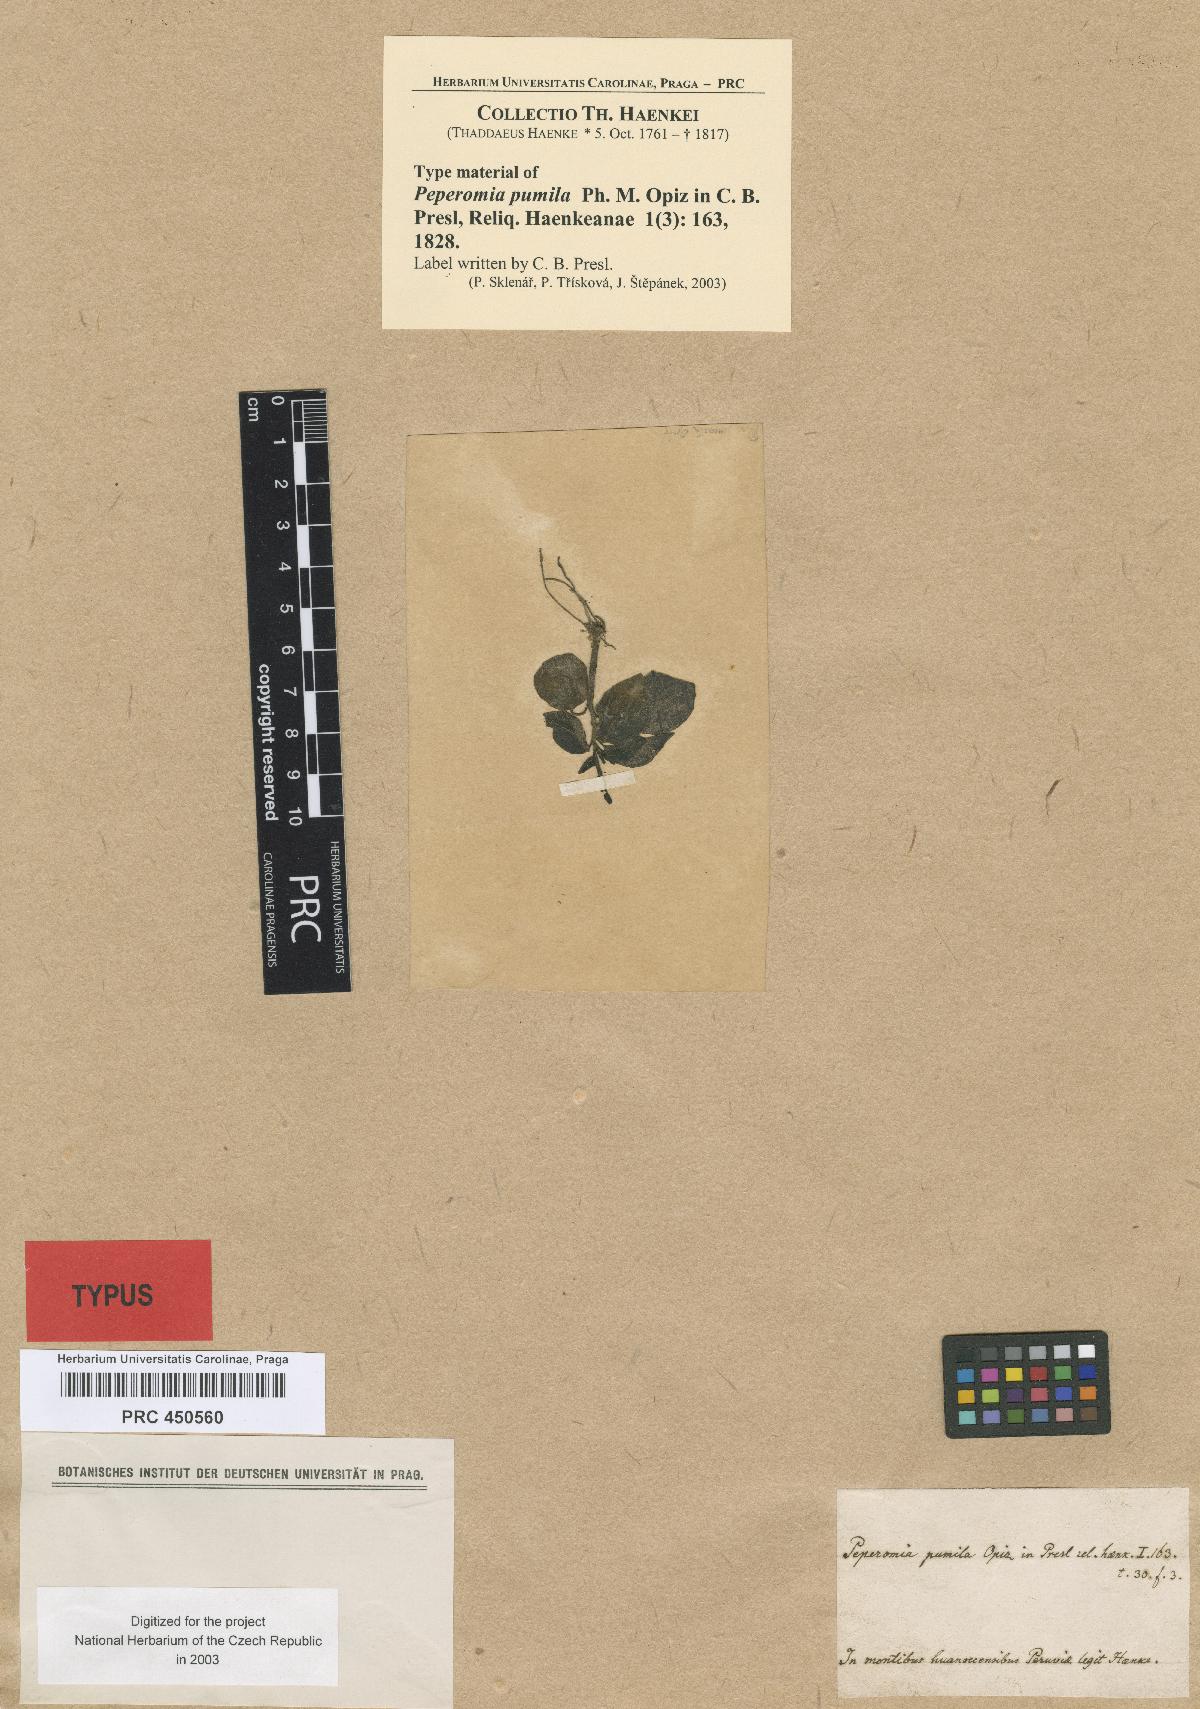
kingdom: Plantae
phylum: Tracheophyta
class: Magnoliopsida
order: Piperales
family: Piperaceae
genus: Peperomia
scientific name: Peperomia pumila
